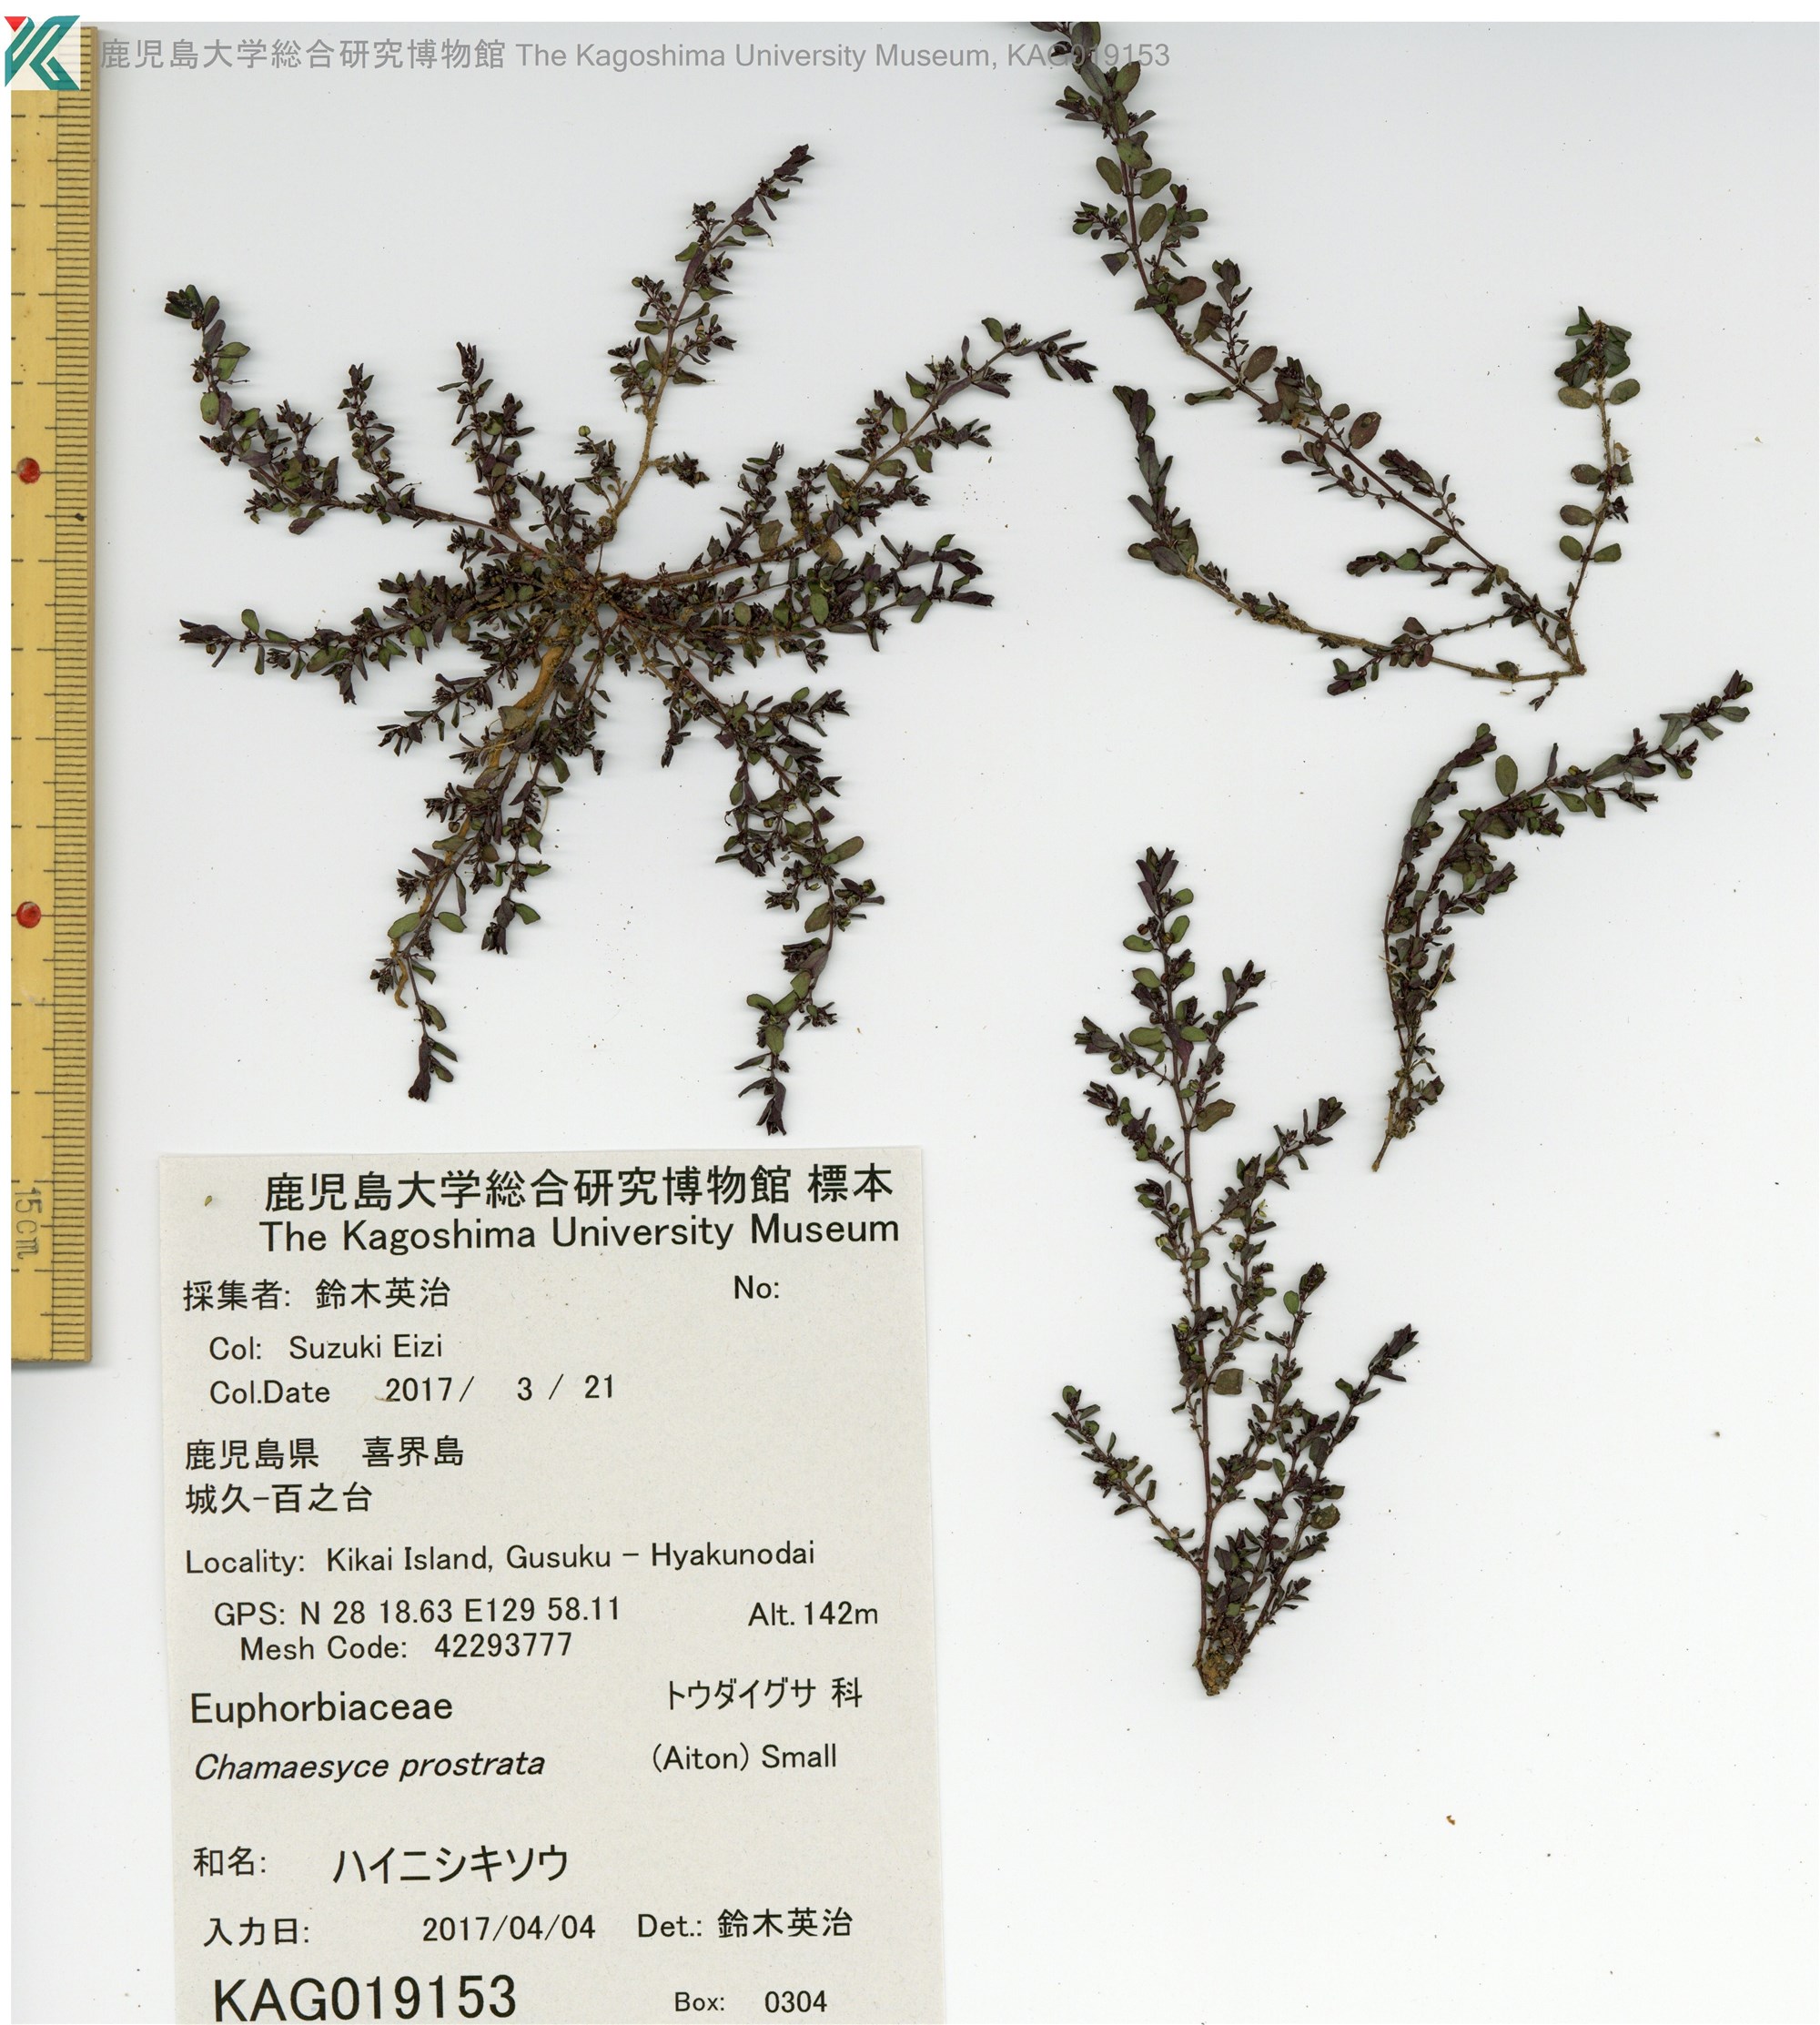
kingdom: Plantae
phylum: Tracheophyta
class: Magnoliopsida
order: Malpighiales
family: Euphorbiaceae
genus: Euphorbia
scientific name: Euphorbia prostrata
